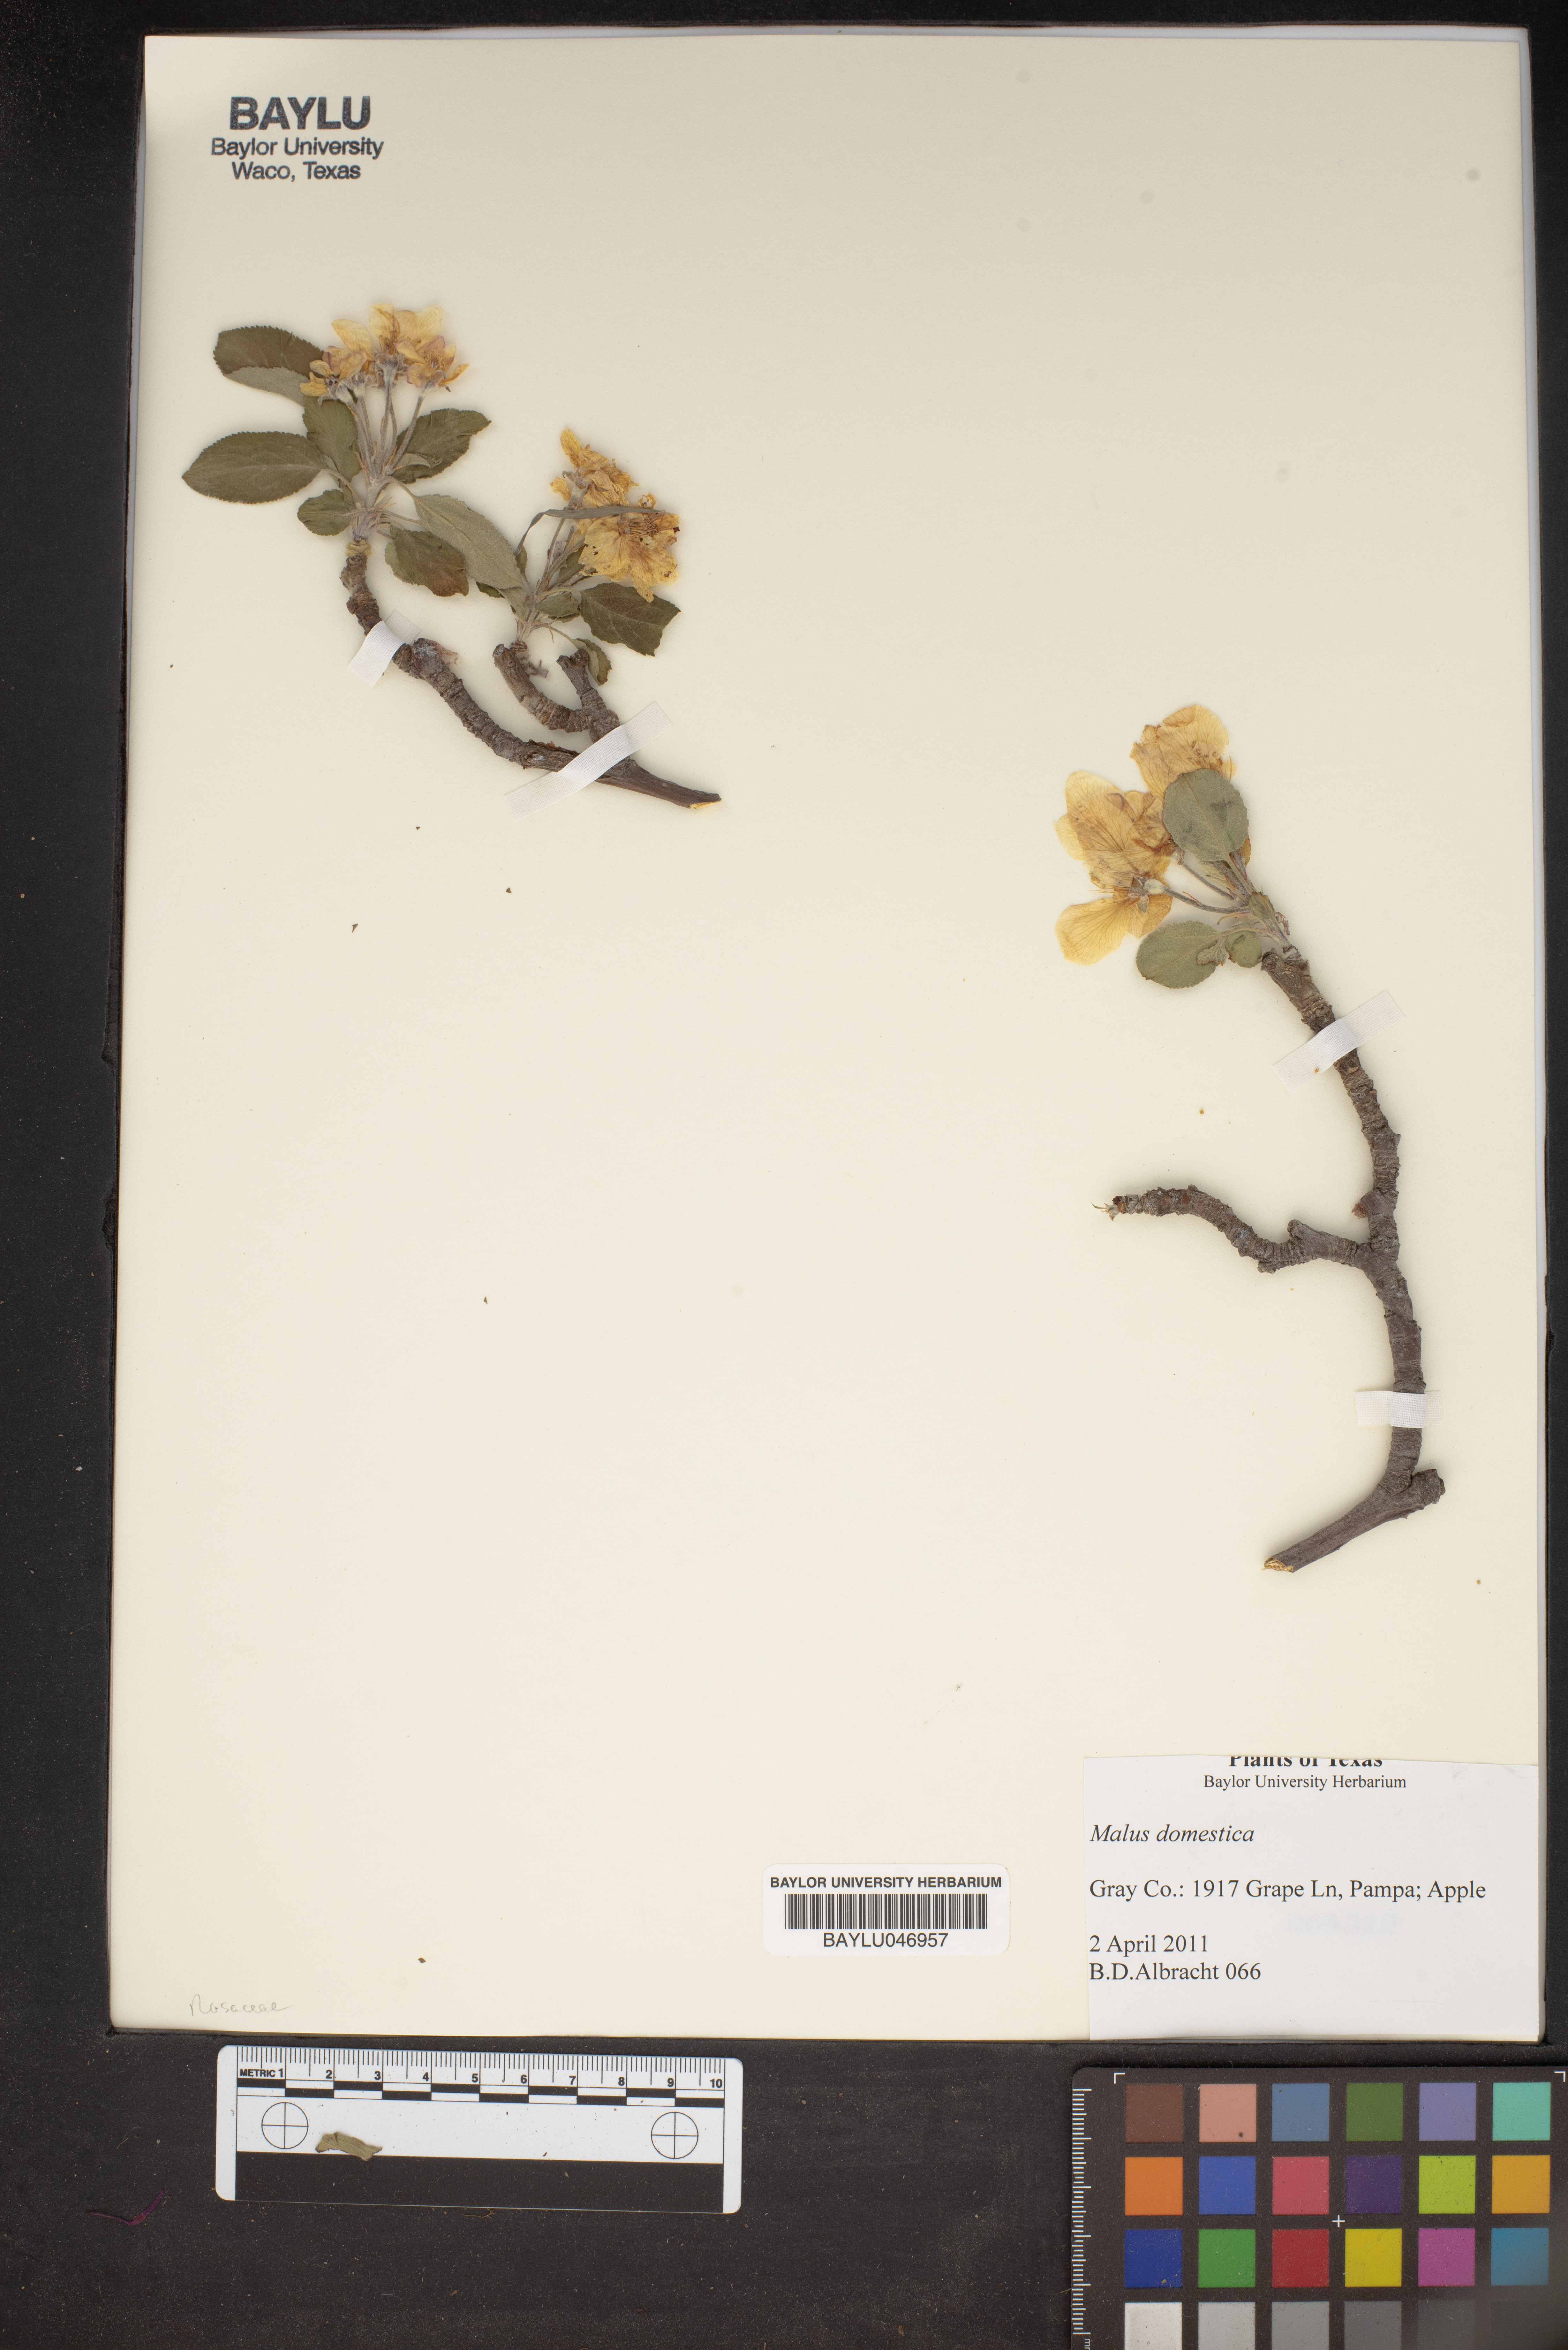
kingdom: Plantae
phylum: Tracheophyta
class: Magnoliopsida
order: Rosales
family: Rosaceae
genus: Malus
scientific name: Malus domestica
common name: Apple
